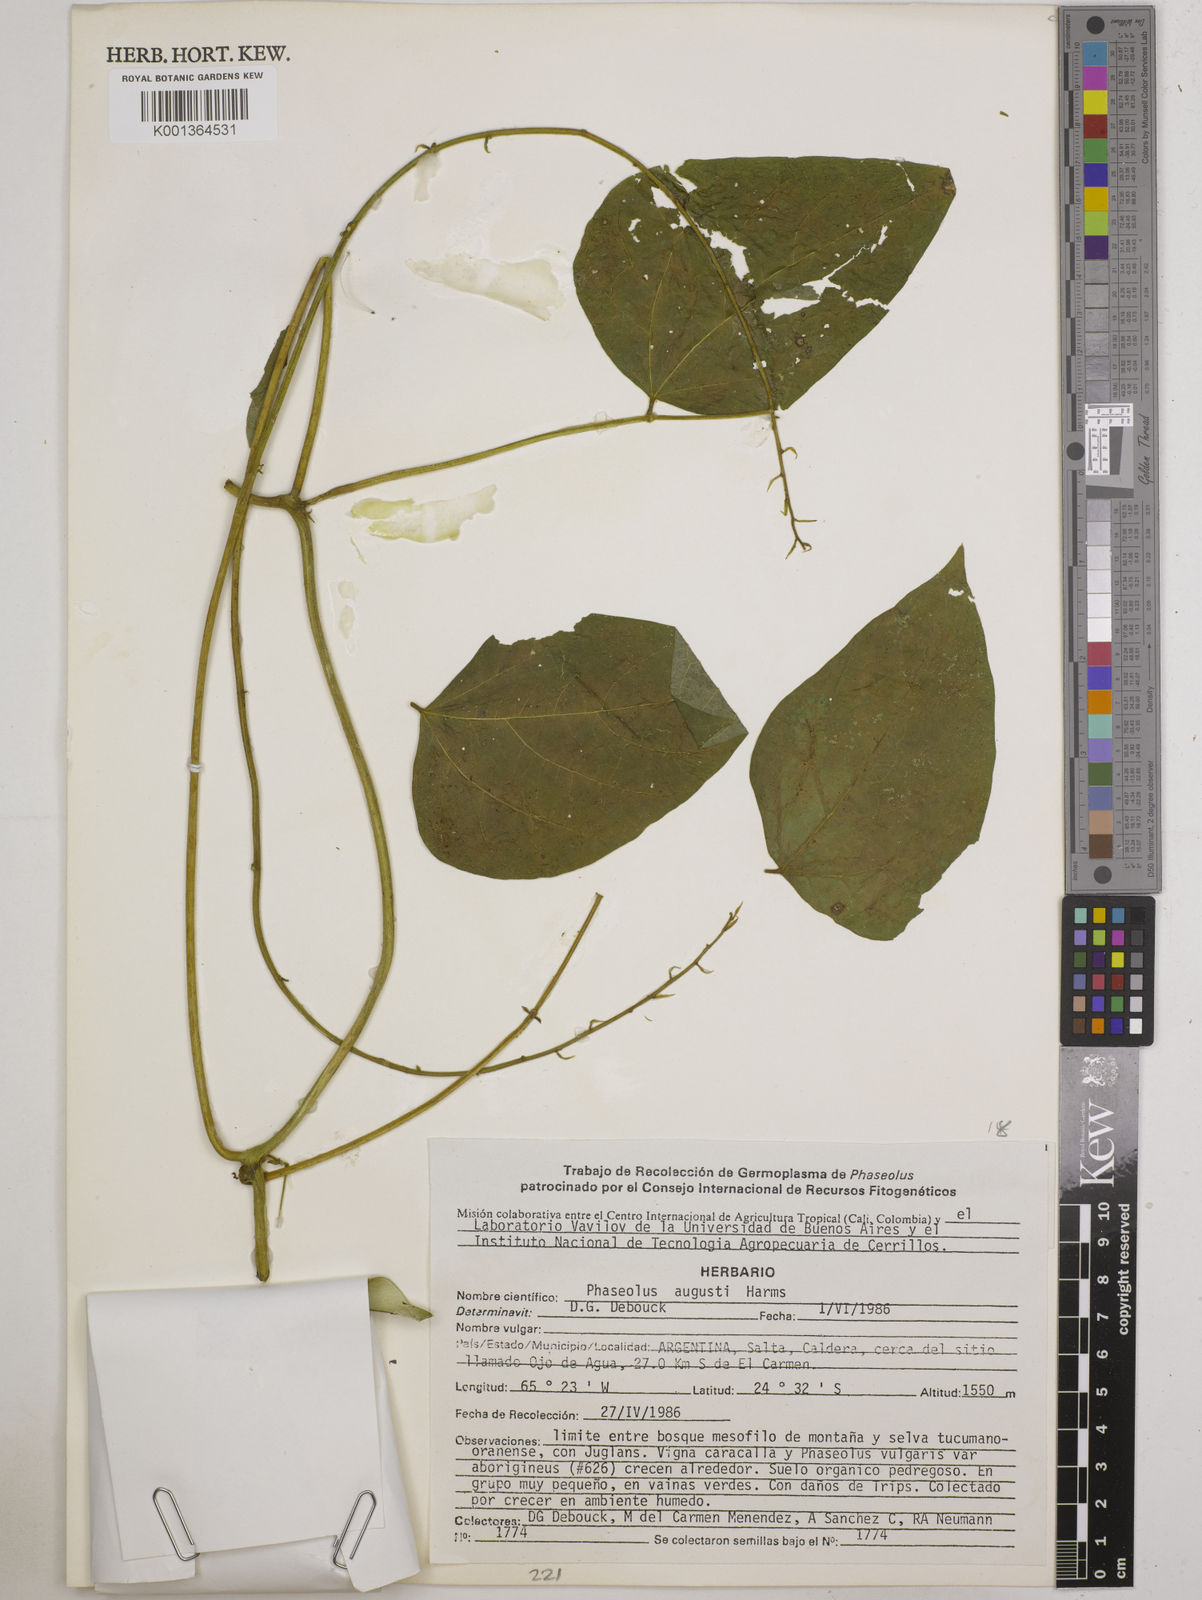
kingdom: Plantae
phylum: Tracheophyta
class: Magnoliopsida
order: Fabales
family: Fabaceae
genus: Phaseolus
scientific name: Phaseolus augusti
